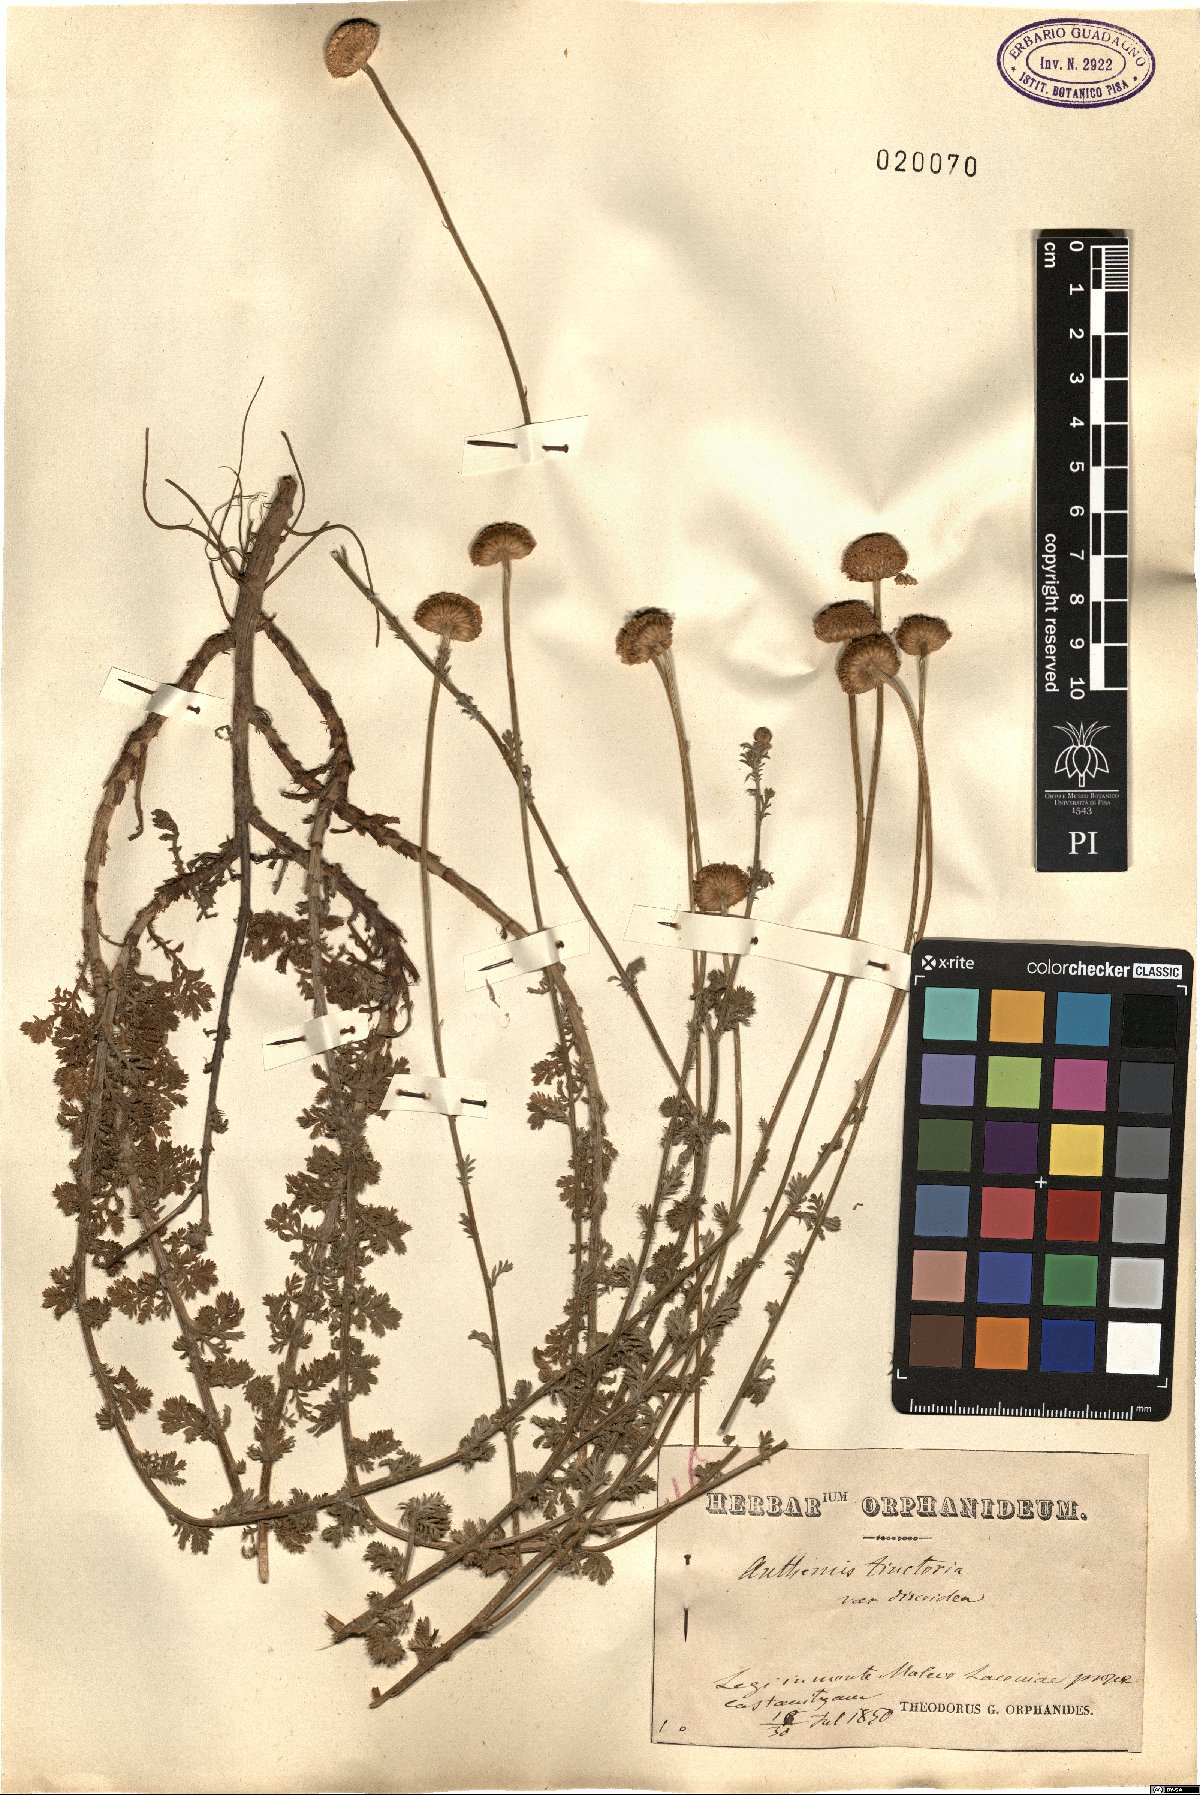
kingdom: Plantae
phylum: Tracheophyta
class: Magnoliopsida
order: Asterales
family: Asteraceae
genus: Cota
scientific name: Cota tinctoria
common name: Golden chamomile
